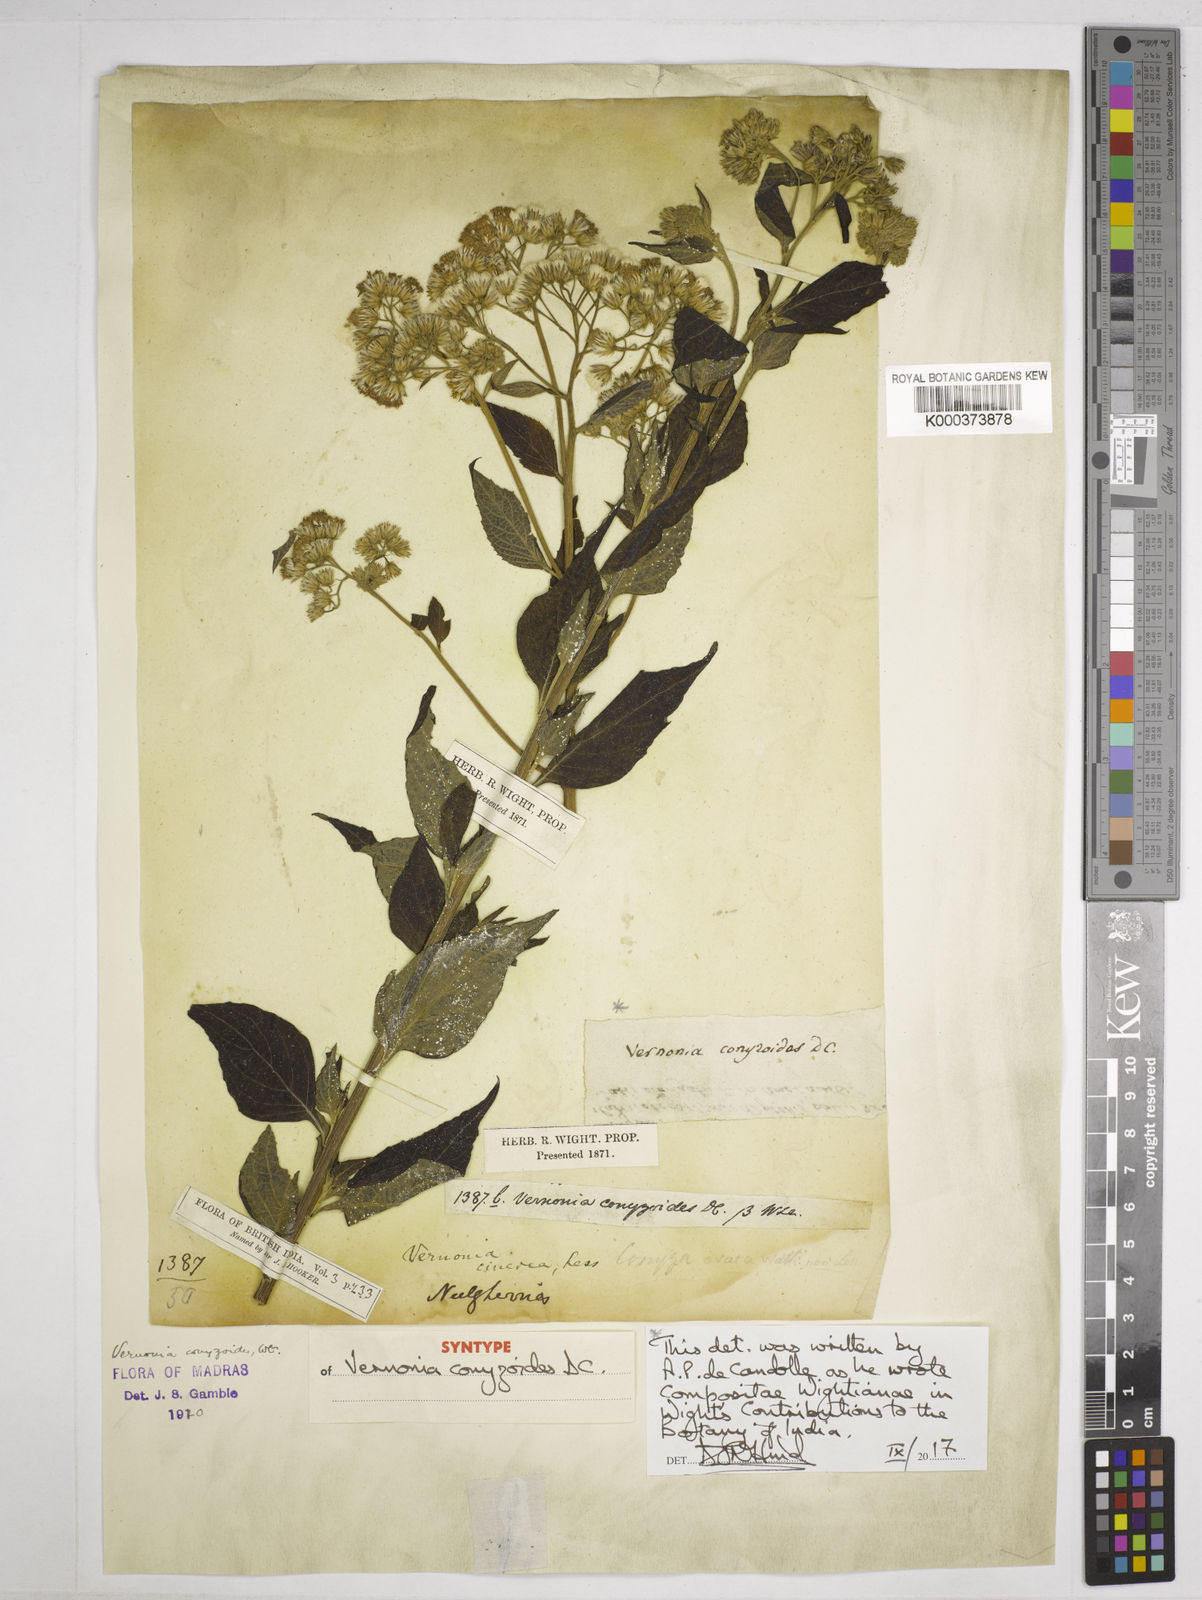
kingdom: Plantae
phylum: Tracheophyta
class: Magnoliopsida
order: Asterales
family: Asteraceae
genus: Cyanthillium
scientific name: Cyanthillium conyzoides
